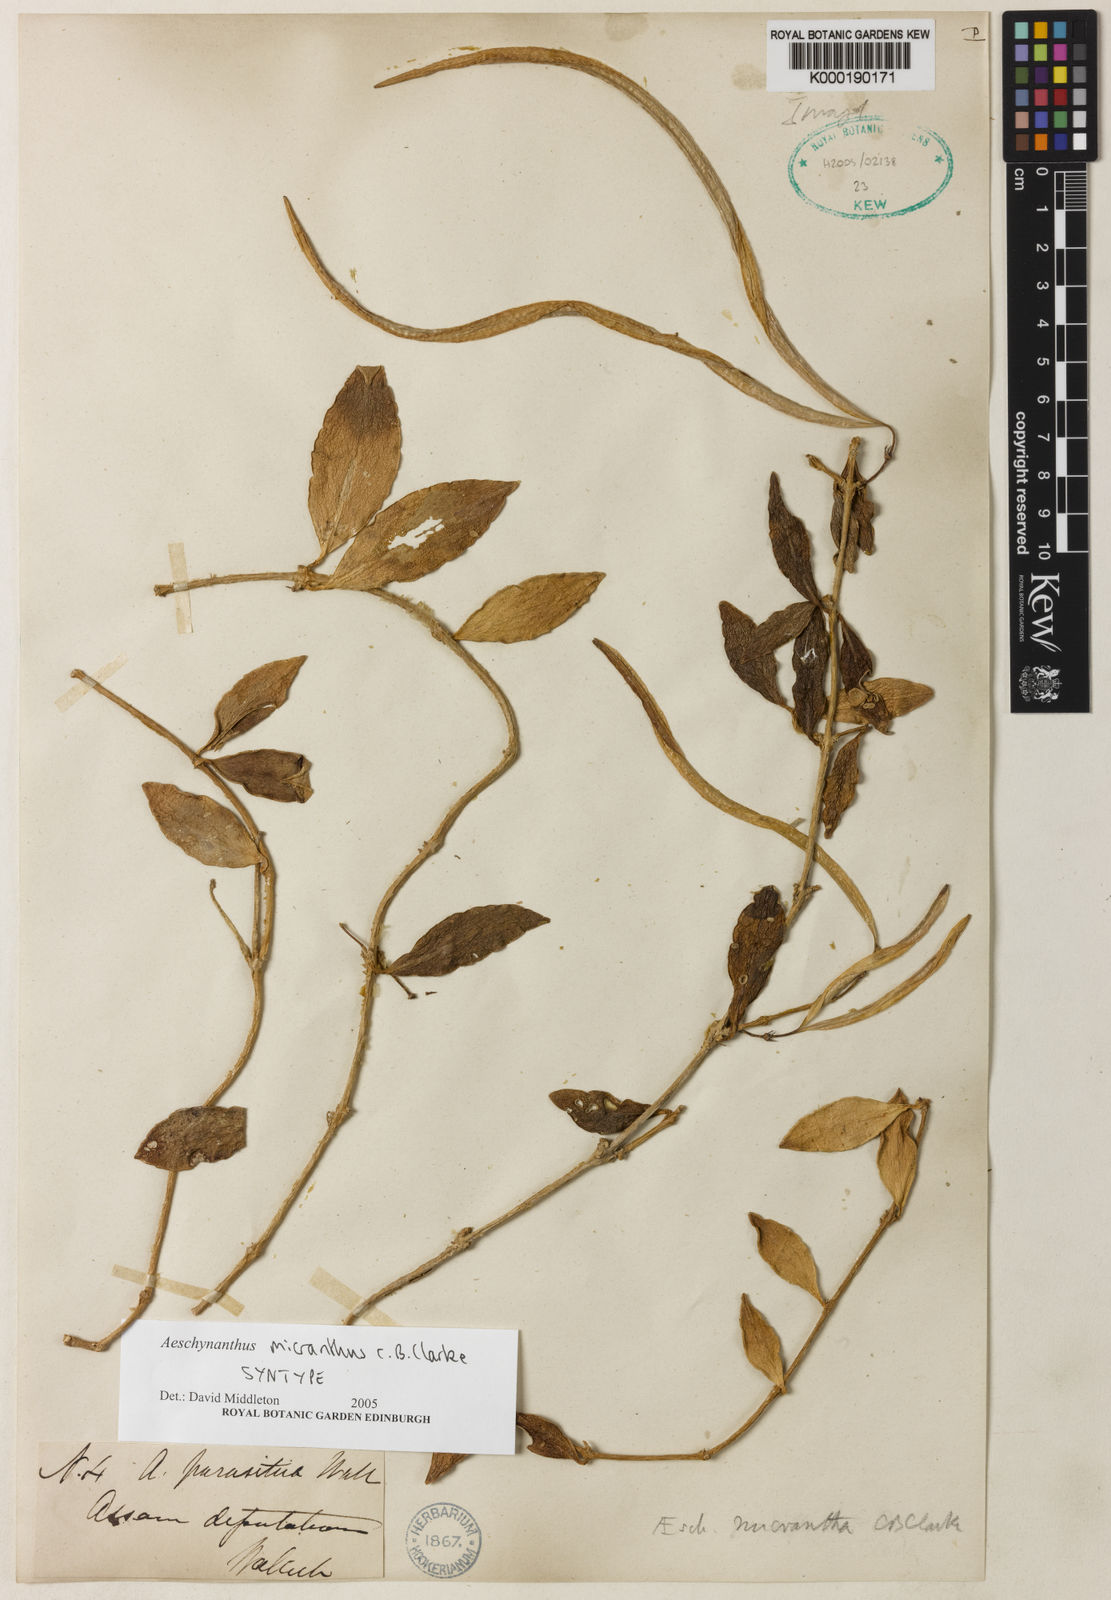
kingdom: Plantae
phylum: Tracheophyta
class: Magnoliopsida
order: Lamiales
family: Gesneriaceae
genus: Aeschynanthus
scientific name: Aeschynanthus micranthus
